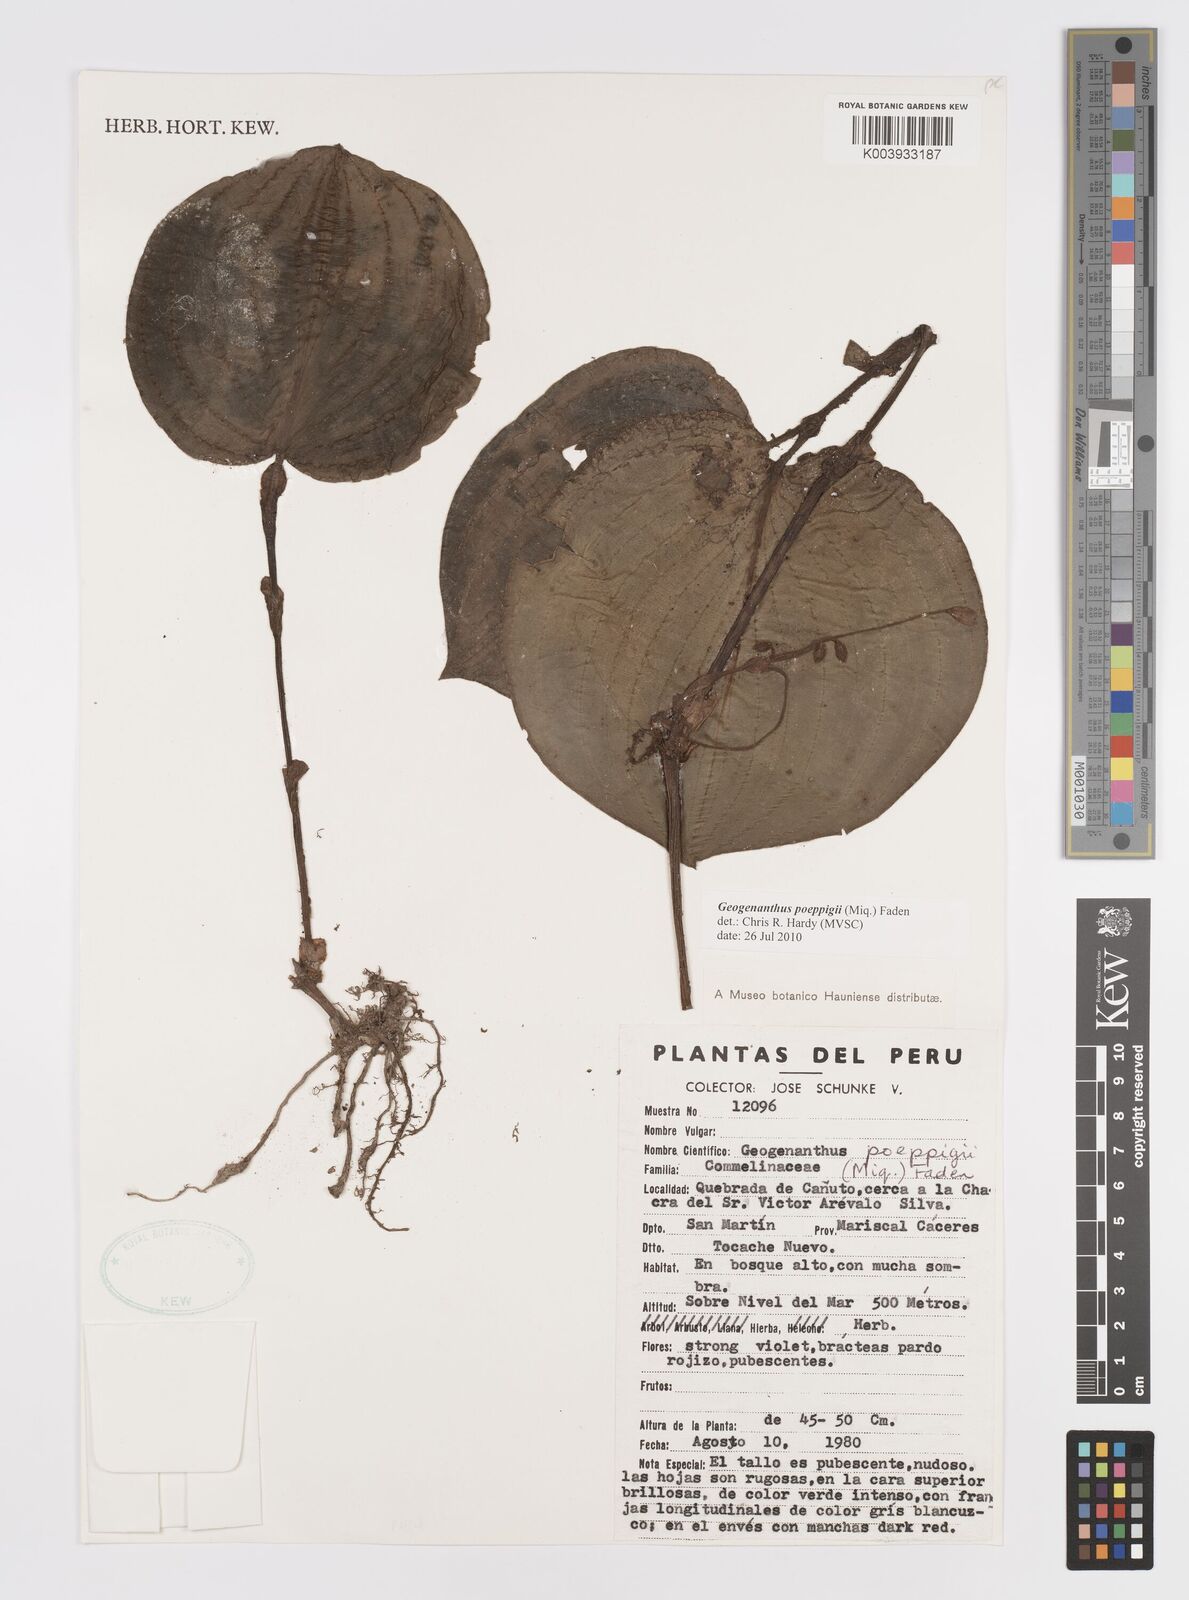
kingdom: Plantae
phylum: Tracheophyta
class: Liliopsida
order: Commelinales
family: Commelinaceae
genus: Geogenanthus
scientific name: Geogenanthus poeppigii
